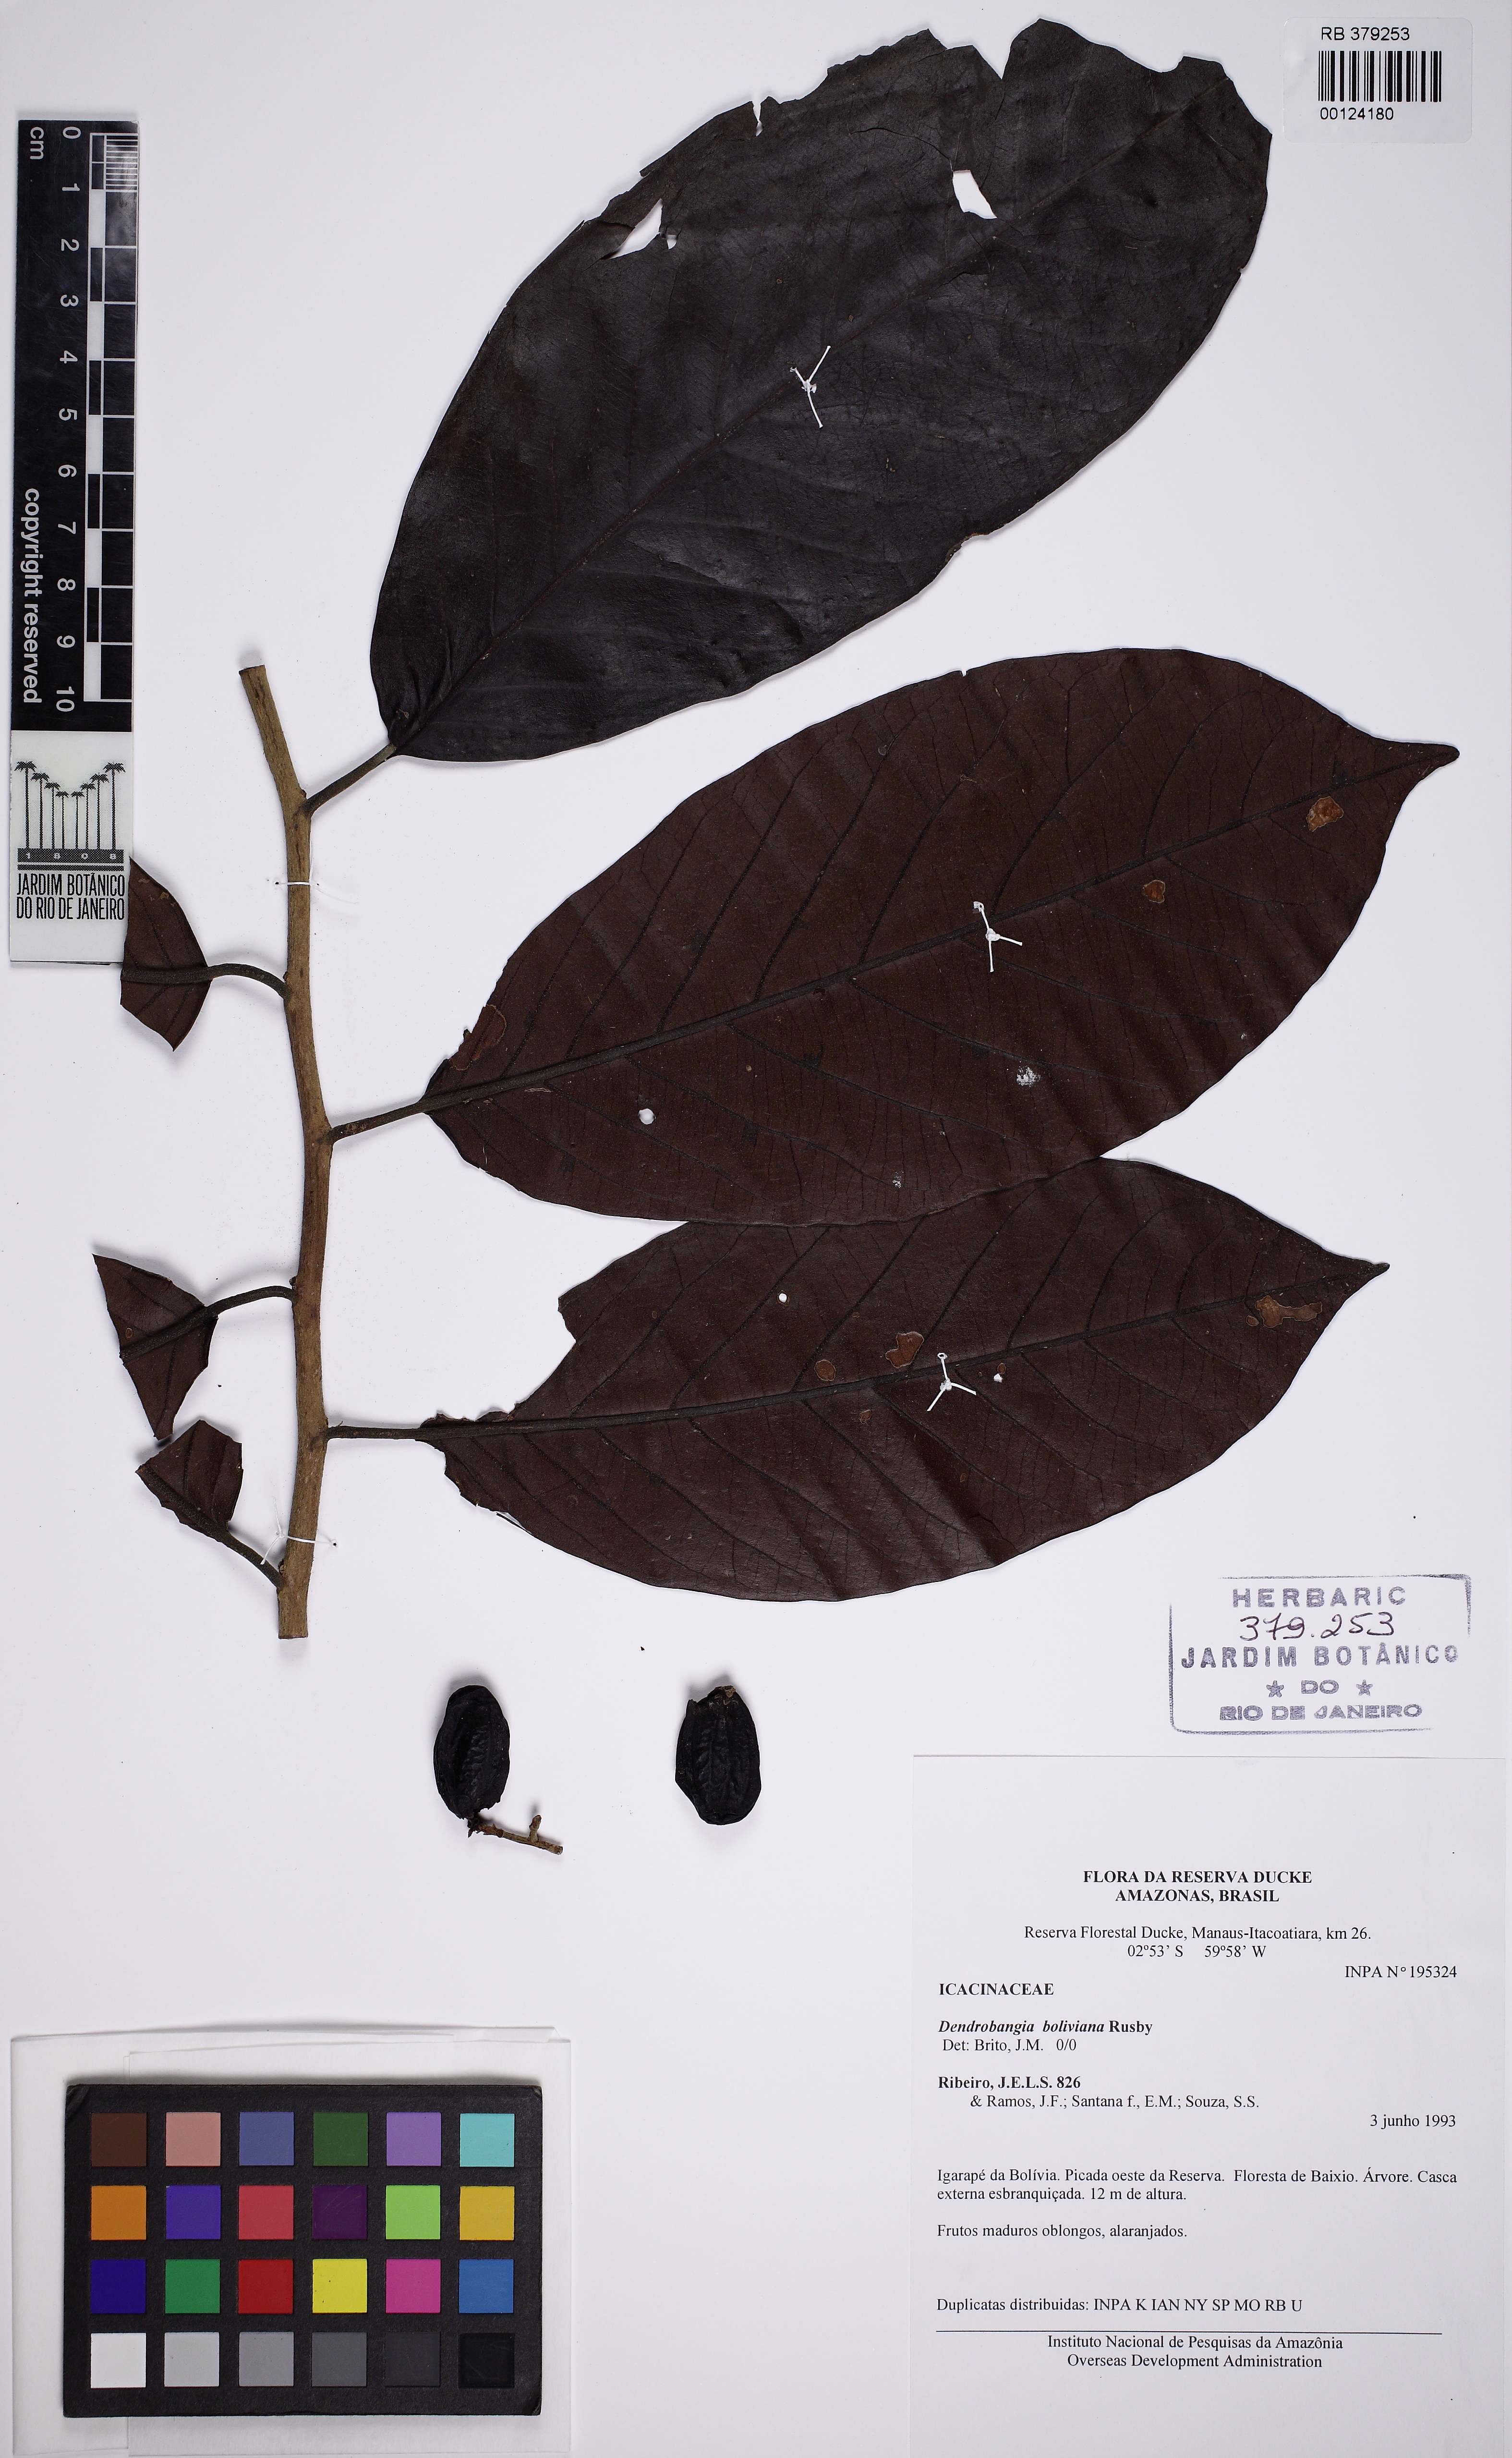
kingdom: Plantae
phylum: Tracheophyta
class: Magnoliopsida
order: Metteniusales
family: Metteniusaceae
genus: Dendrobangia
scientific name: Dendrobangia boliviana
